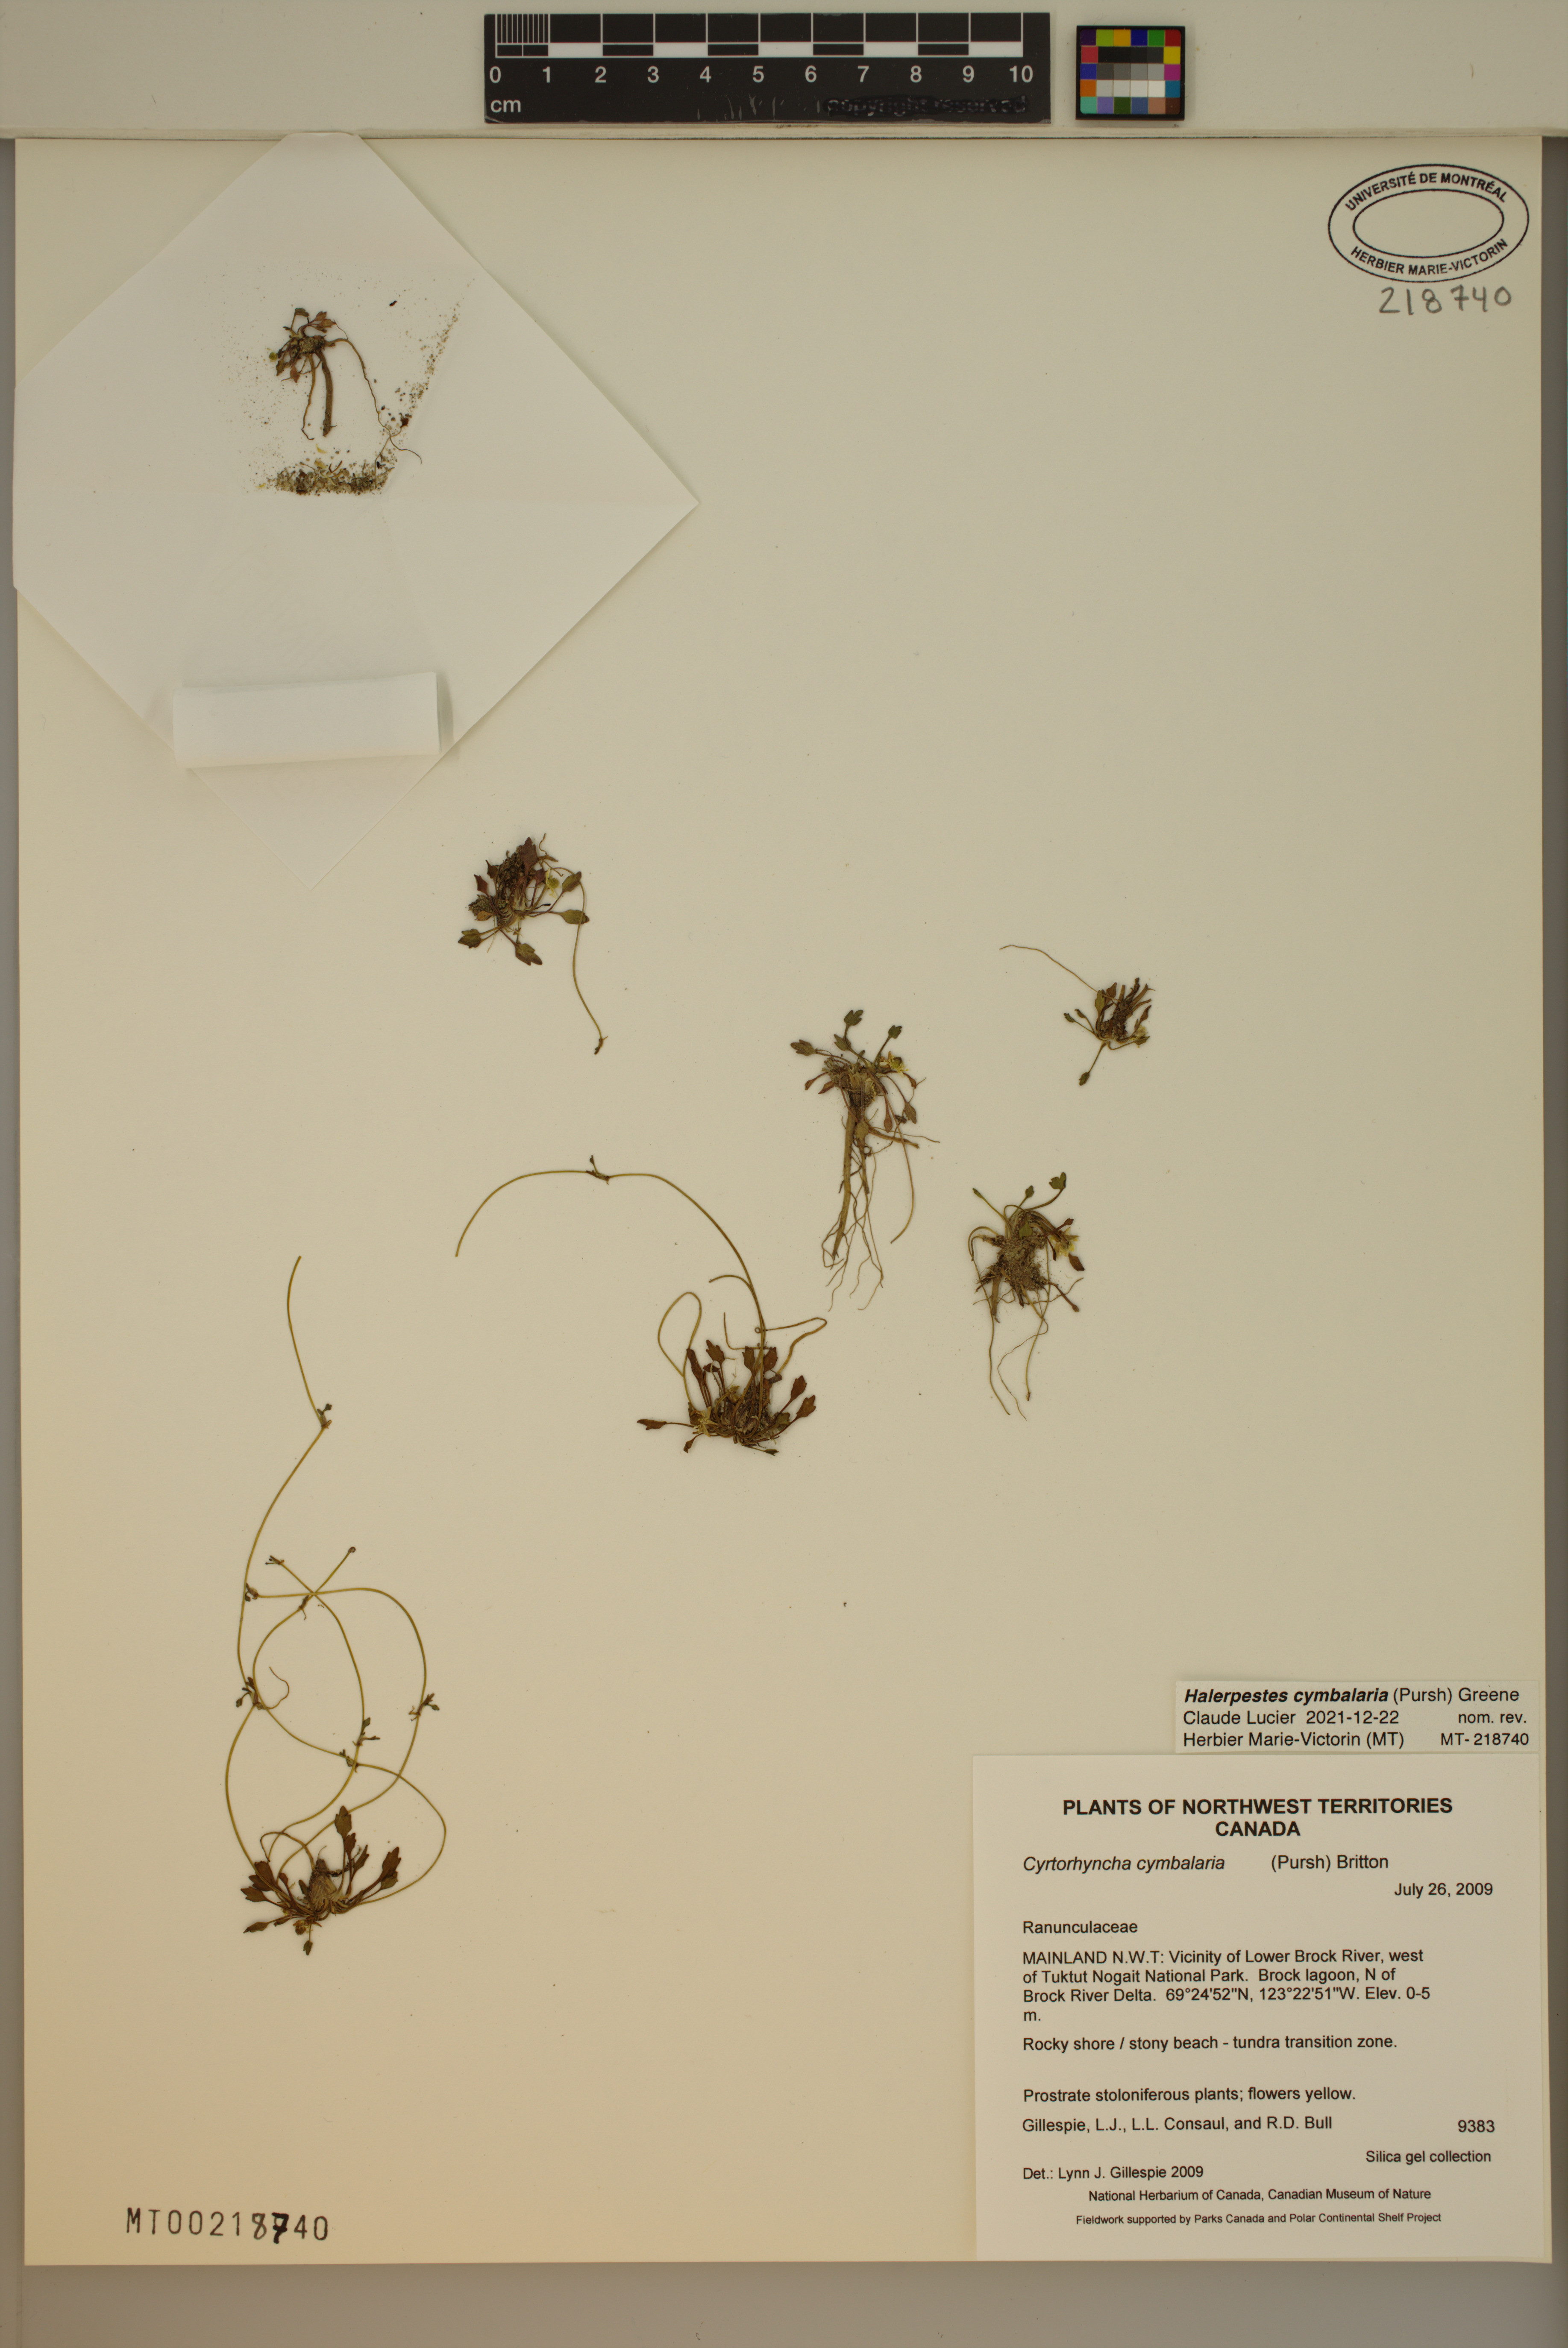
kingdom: Plantae
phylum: Tracheophyta
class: Magnoliopsida
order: Ranunculales
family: Ranunculaceae
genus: Halerpestes
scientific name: Halerpestes cymbalaria
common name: Seaside crowfoot
